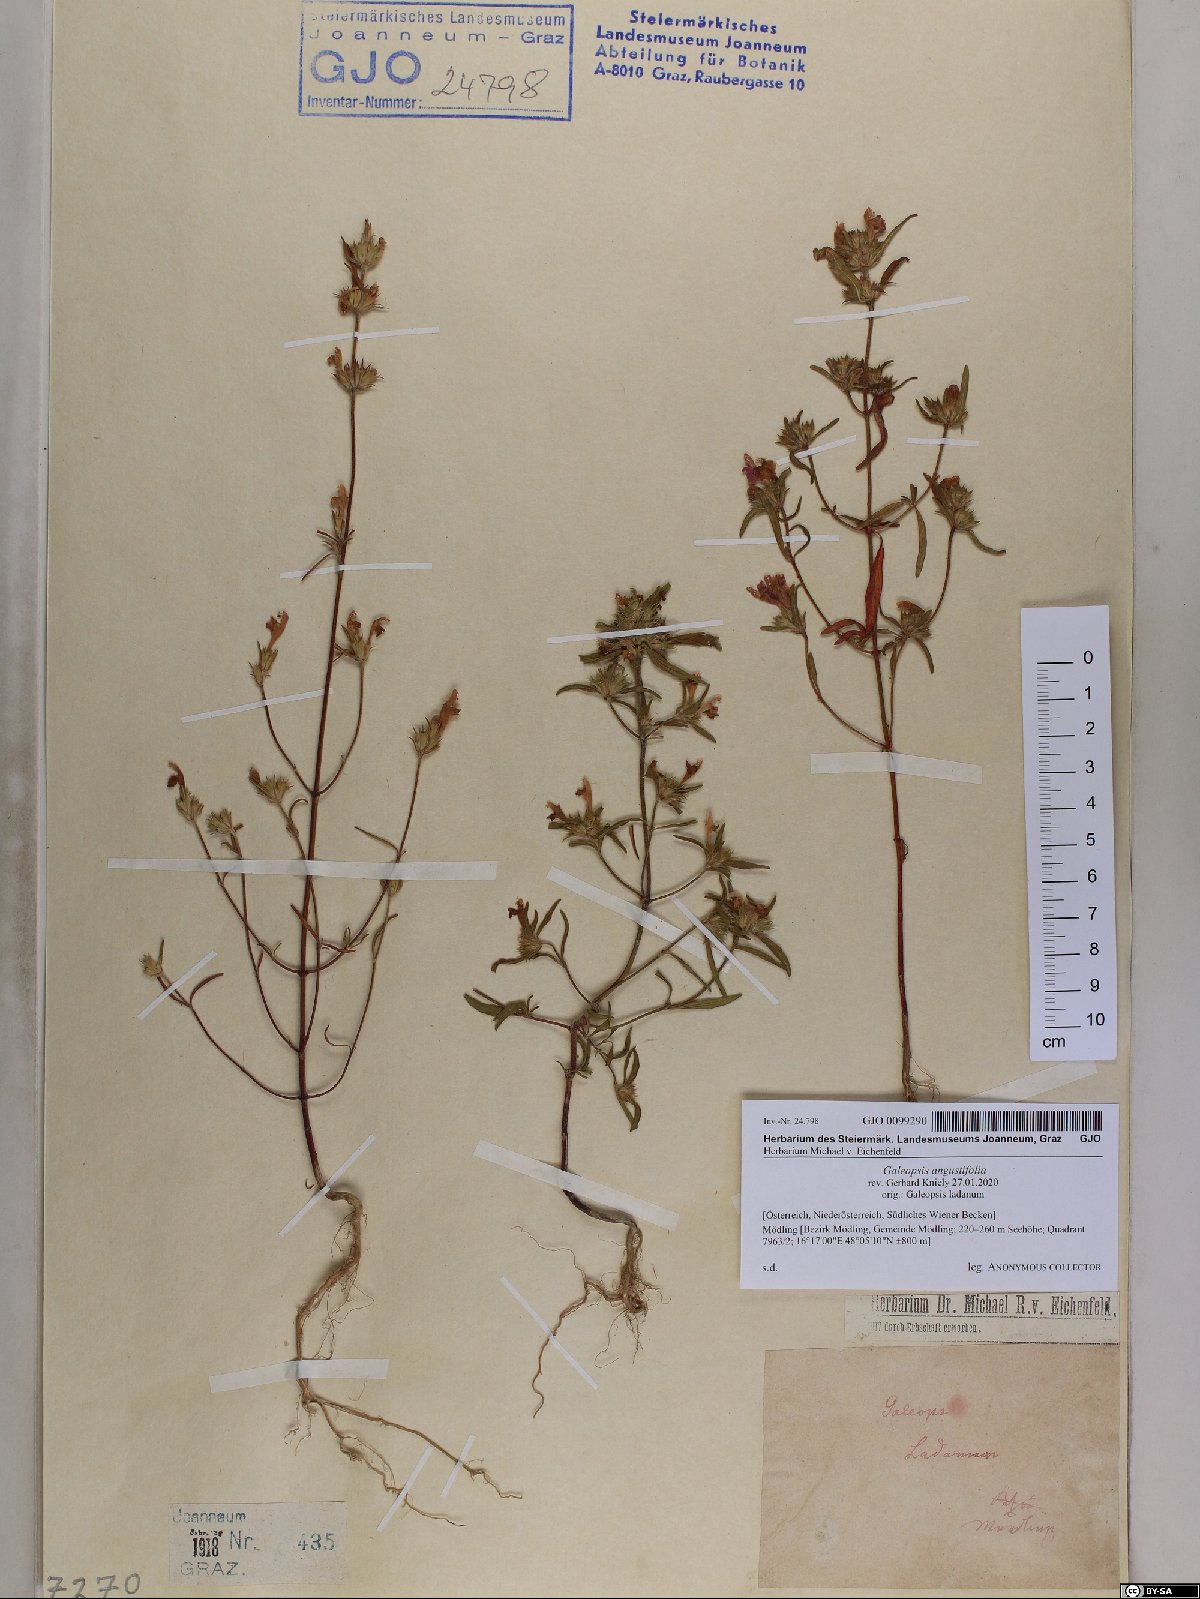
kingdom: Plantae
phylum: Tracheophyta
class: Magnoliopsida
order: Lamiales
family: Lamiaceae
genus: Galeopsis
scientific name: Galeopsis angustifolia
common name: Red hemp-nettle
